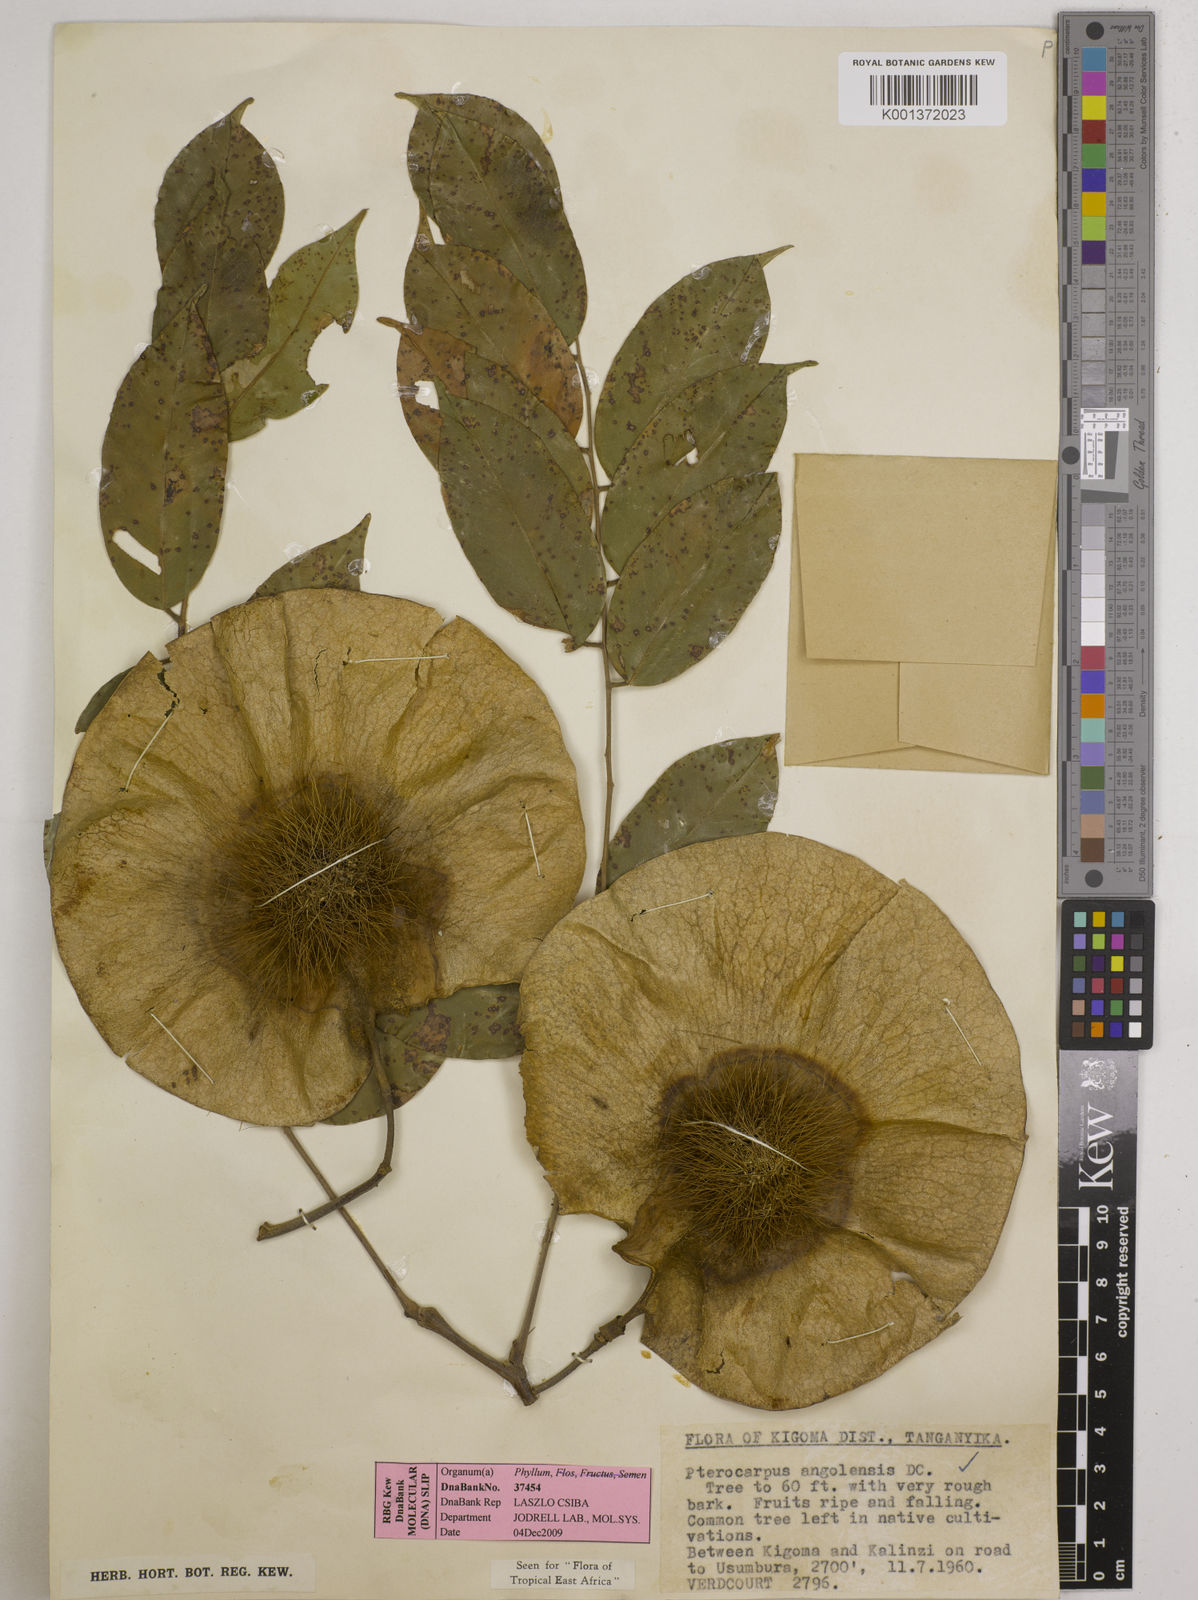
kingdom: Plantae
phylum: Tracheophyta
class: Magnoliopsida
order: Fabales
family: Fabaceae
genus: Pterocarpus
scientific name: Pterocarpus angolensis
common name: Bloodwood tree
